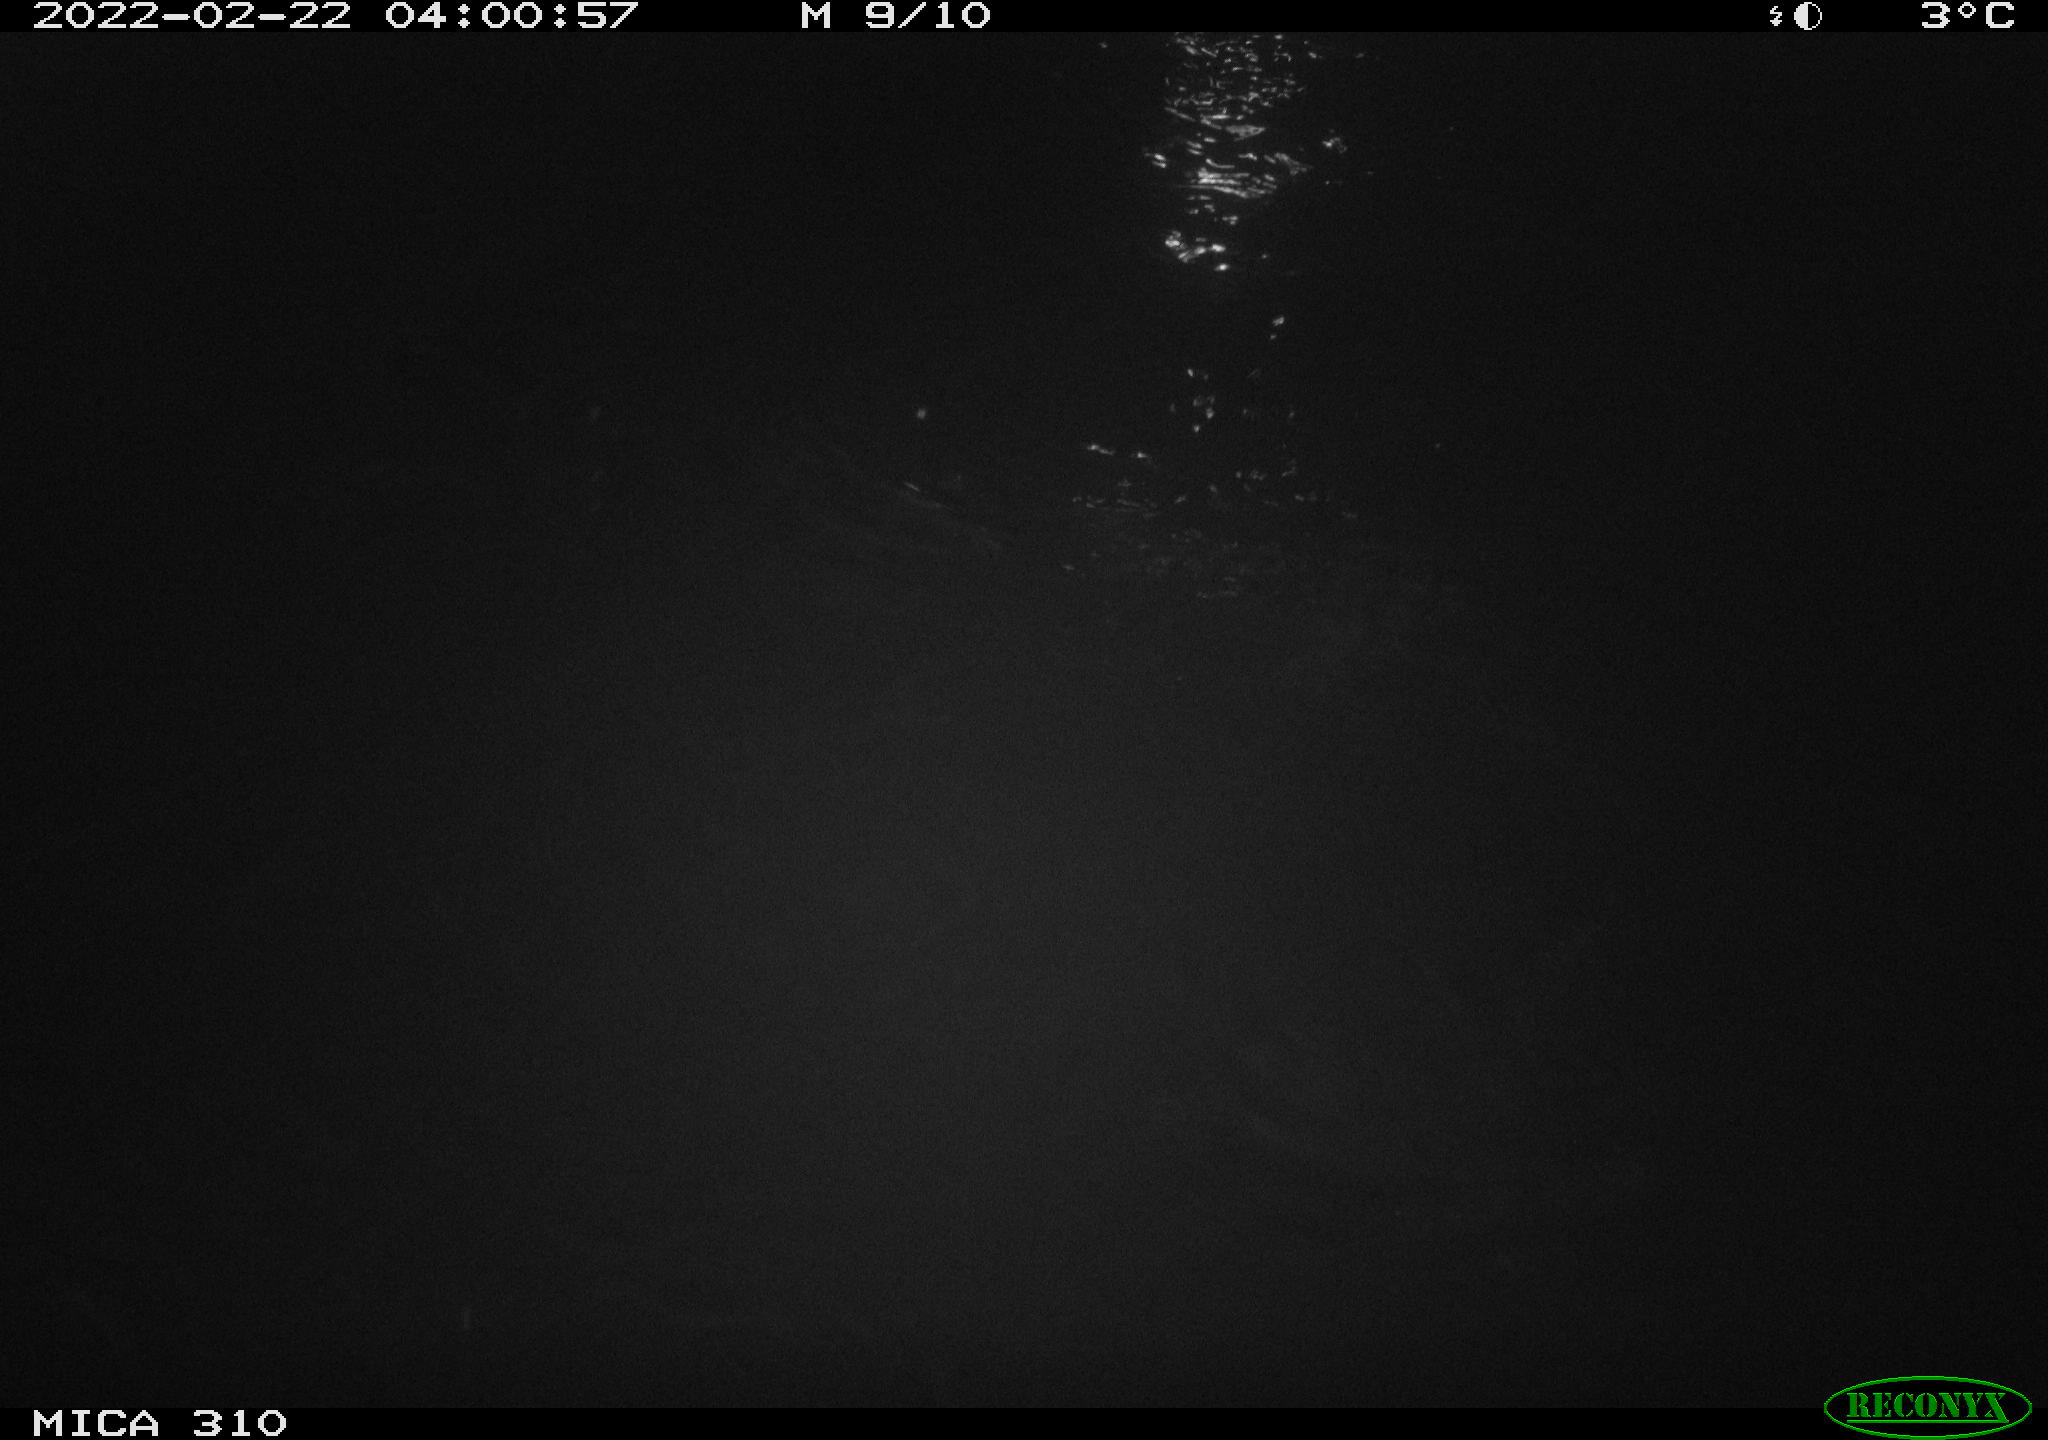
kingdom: Animalia
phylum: Chordata
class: Mammalia
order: Rodentia
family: Cricetidae
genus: Ondatra
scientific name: Ondatra zibethicus
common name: Muskrat
